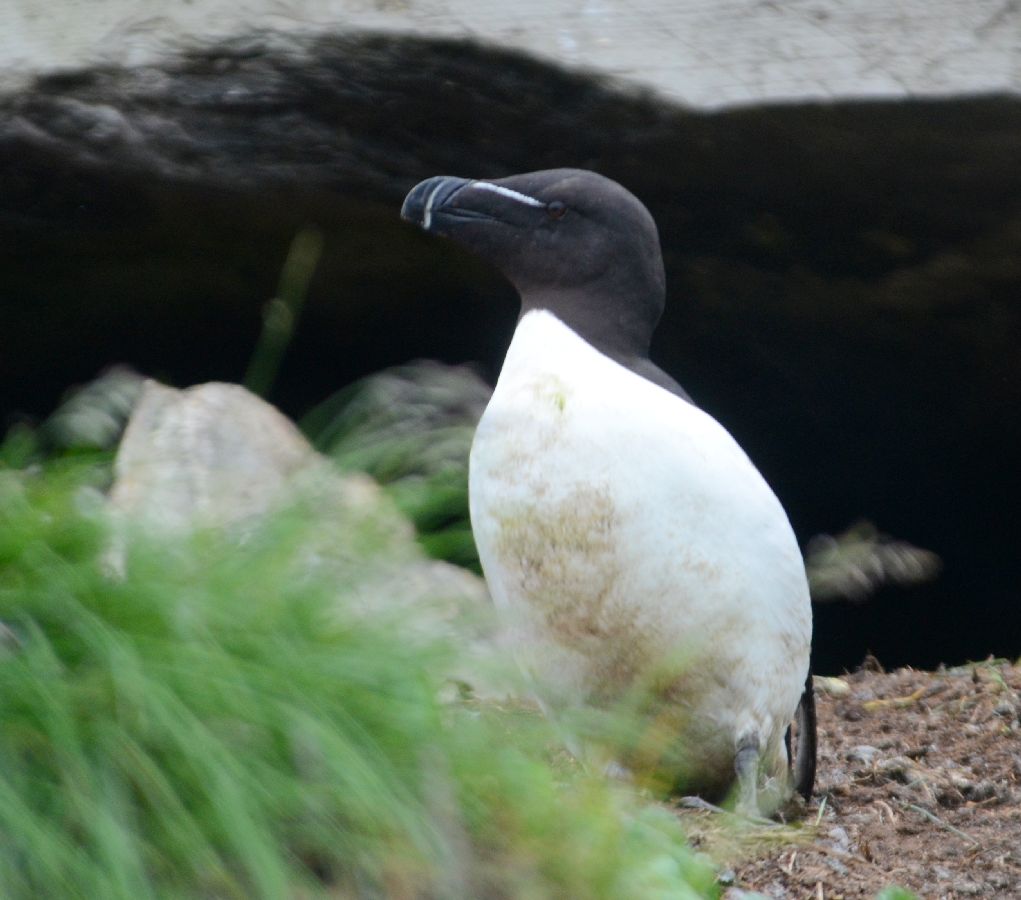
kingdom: Animalia
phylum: Chordata
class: Aves
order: Charadriiformes
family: Alcidae
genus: Alca
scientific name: Alca torda
